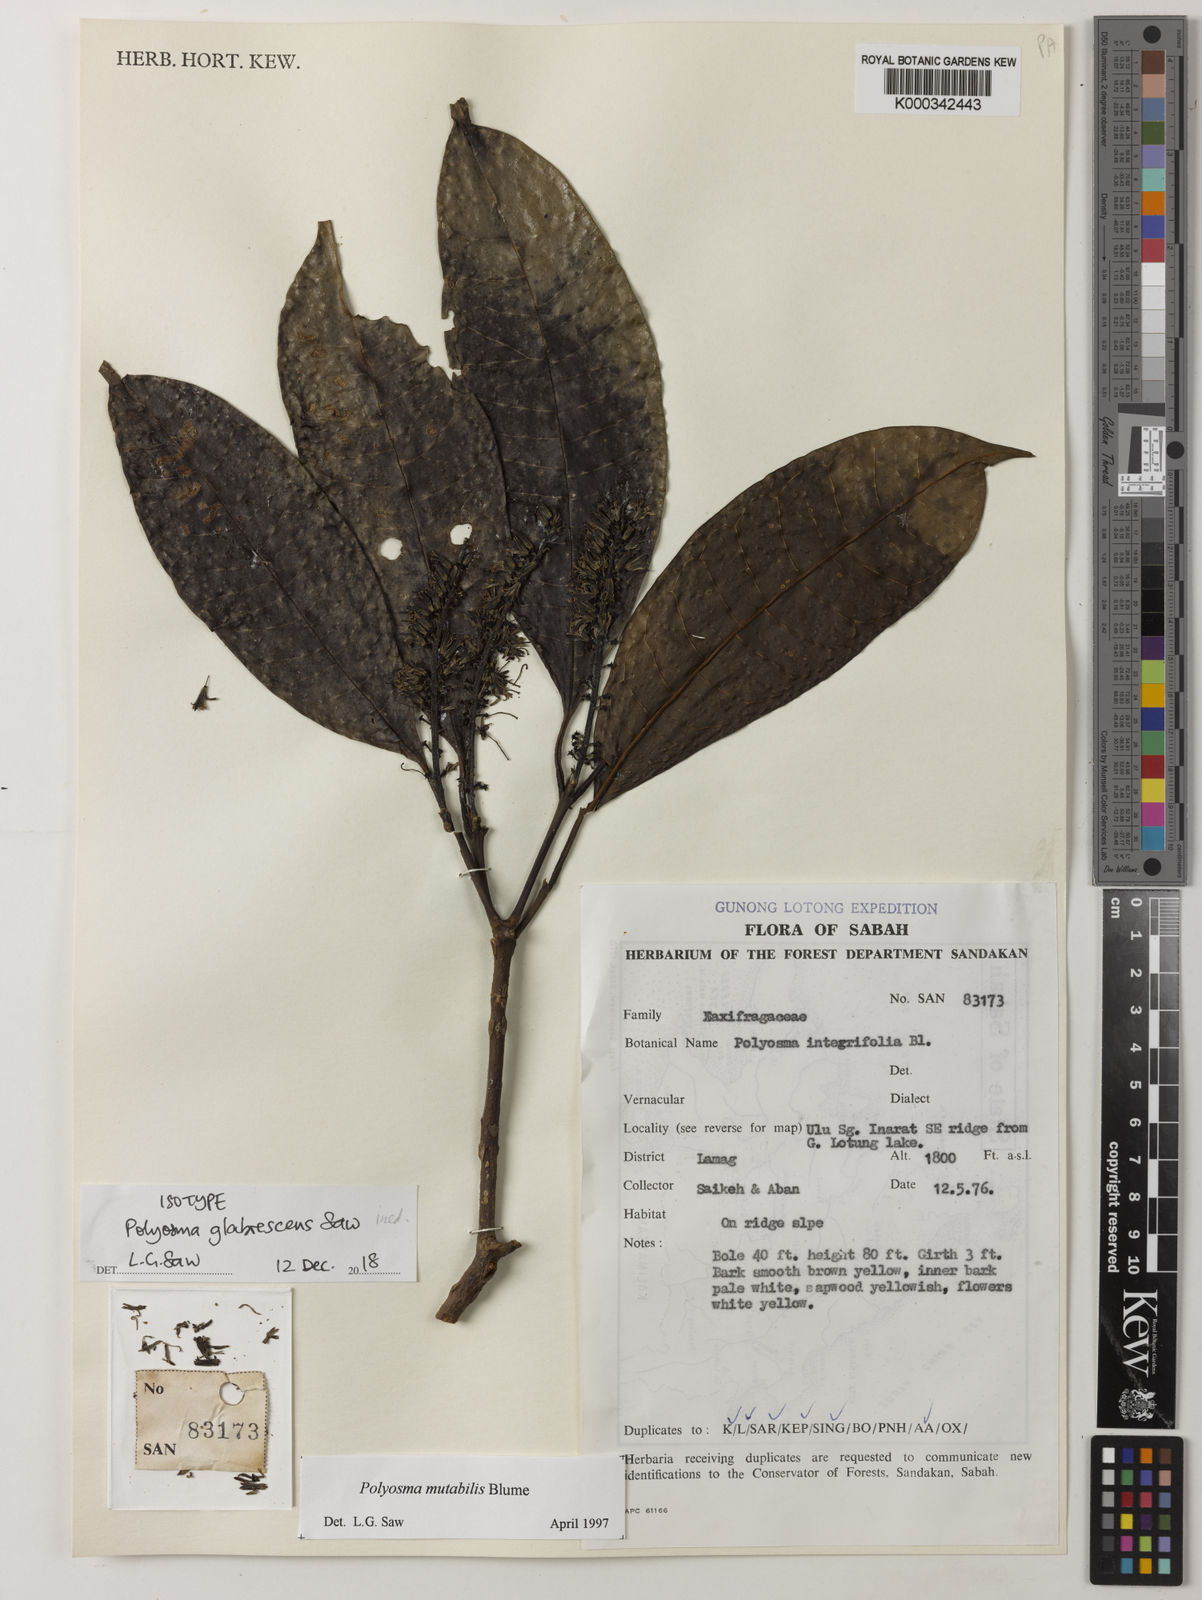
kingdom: Plantae
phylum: Tracheophyta
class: Magnoliopsida
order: Escalloniales
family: Escalloniaceae
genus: Polyosma
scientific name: Polyosma
